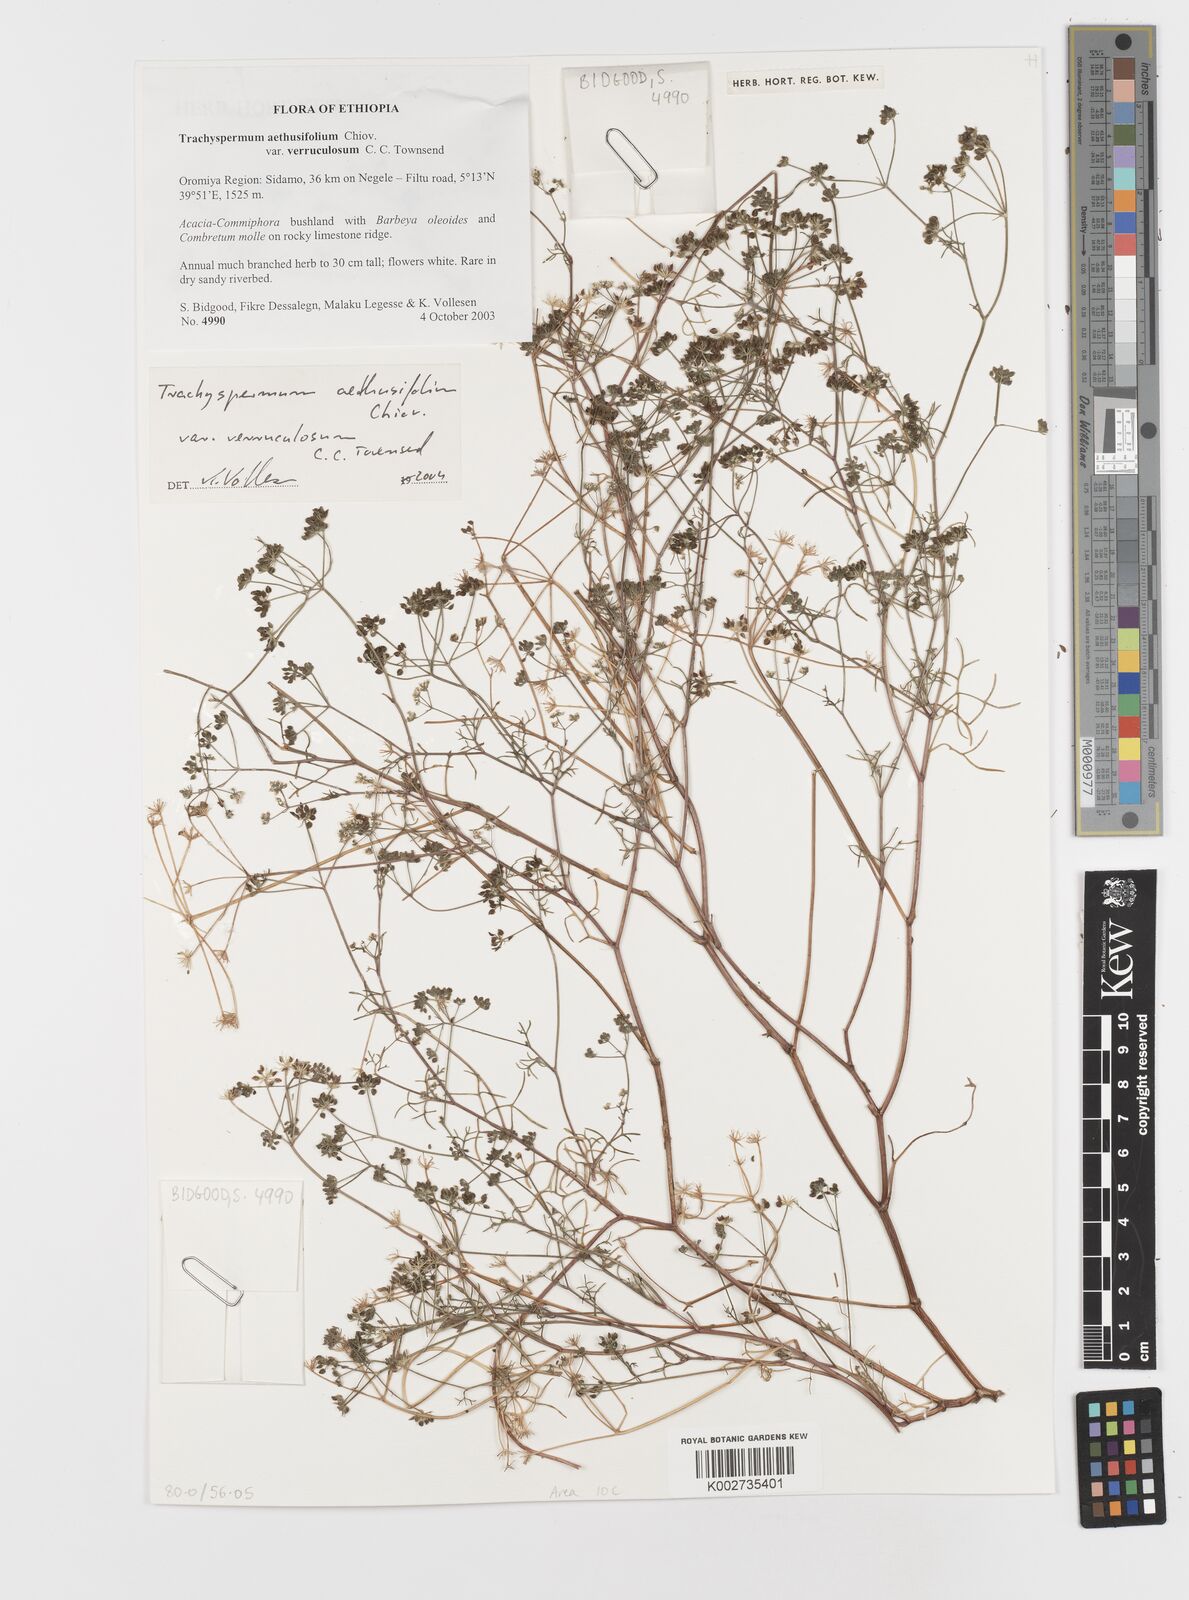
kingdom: Plantae
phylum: Tracheophyta
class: Magnoliopsida
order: Apiales
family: Apiaceae
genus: Trachyspermum
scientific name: Trachyspermum pimpinelloides
